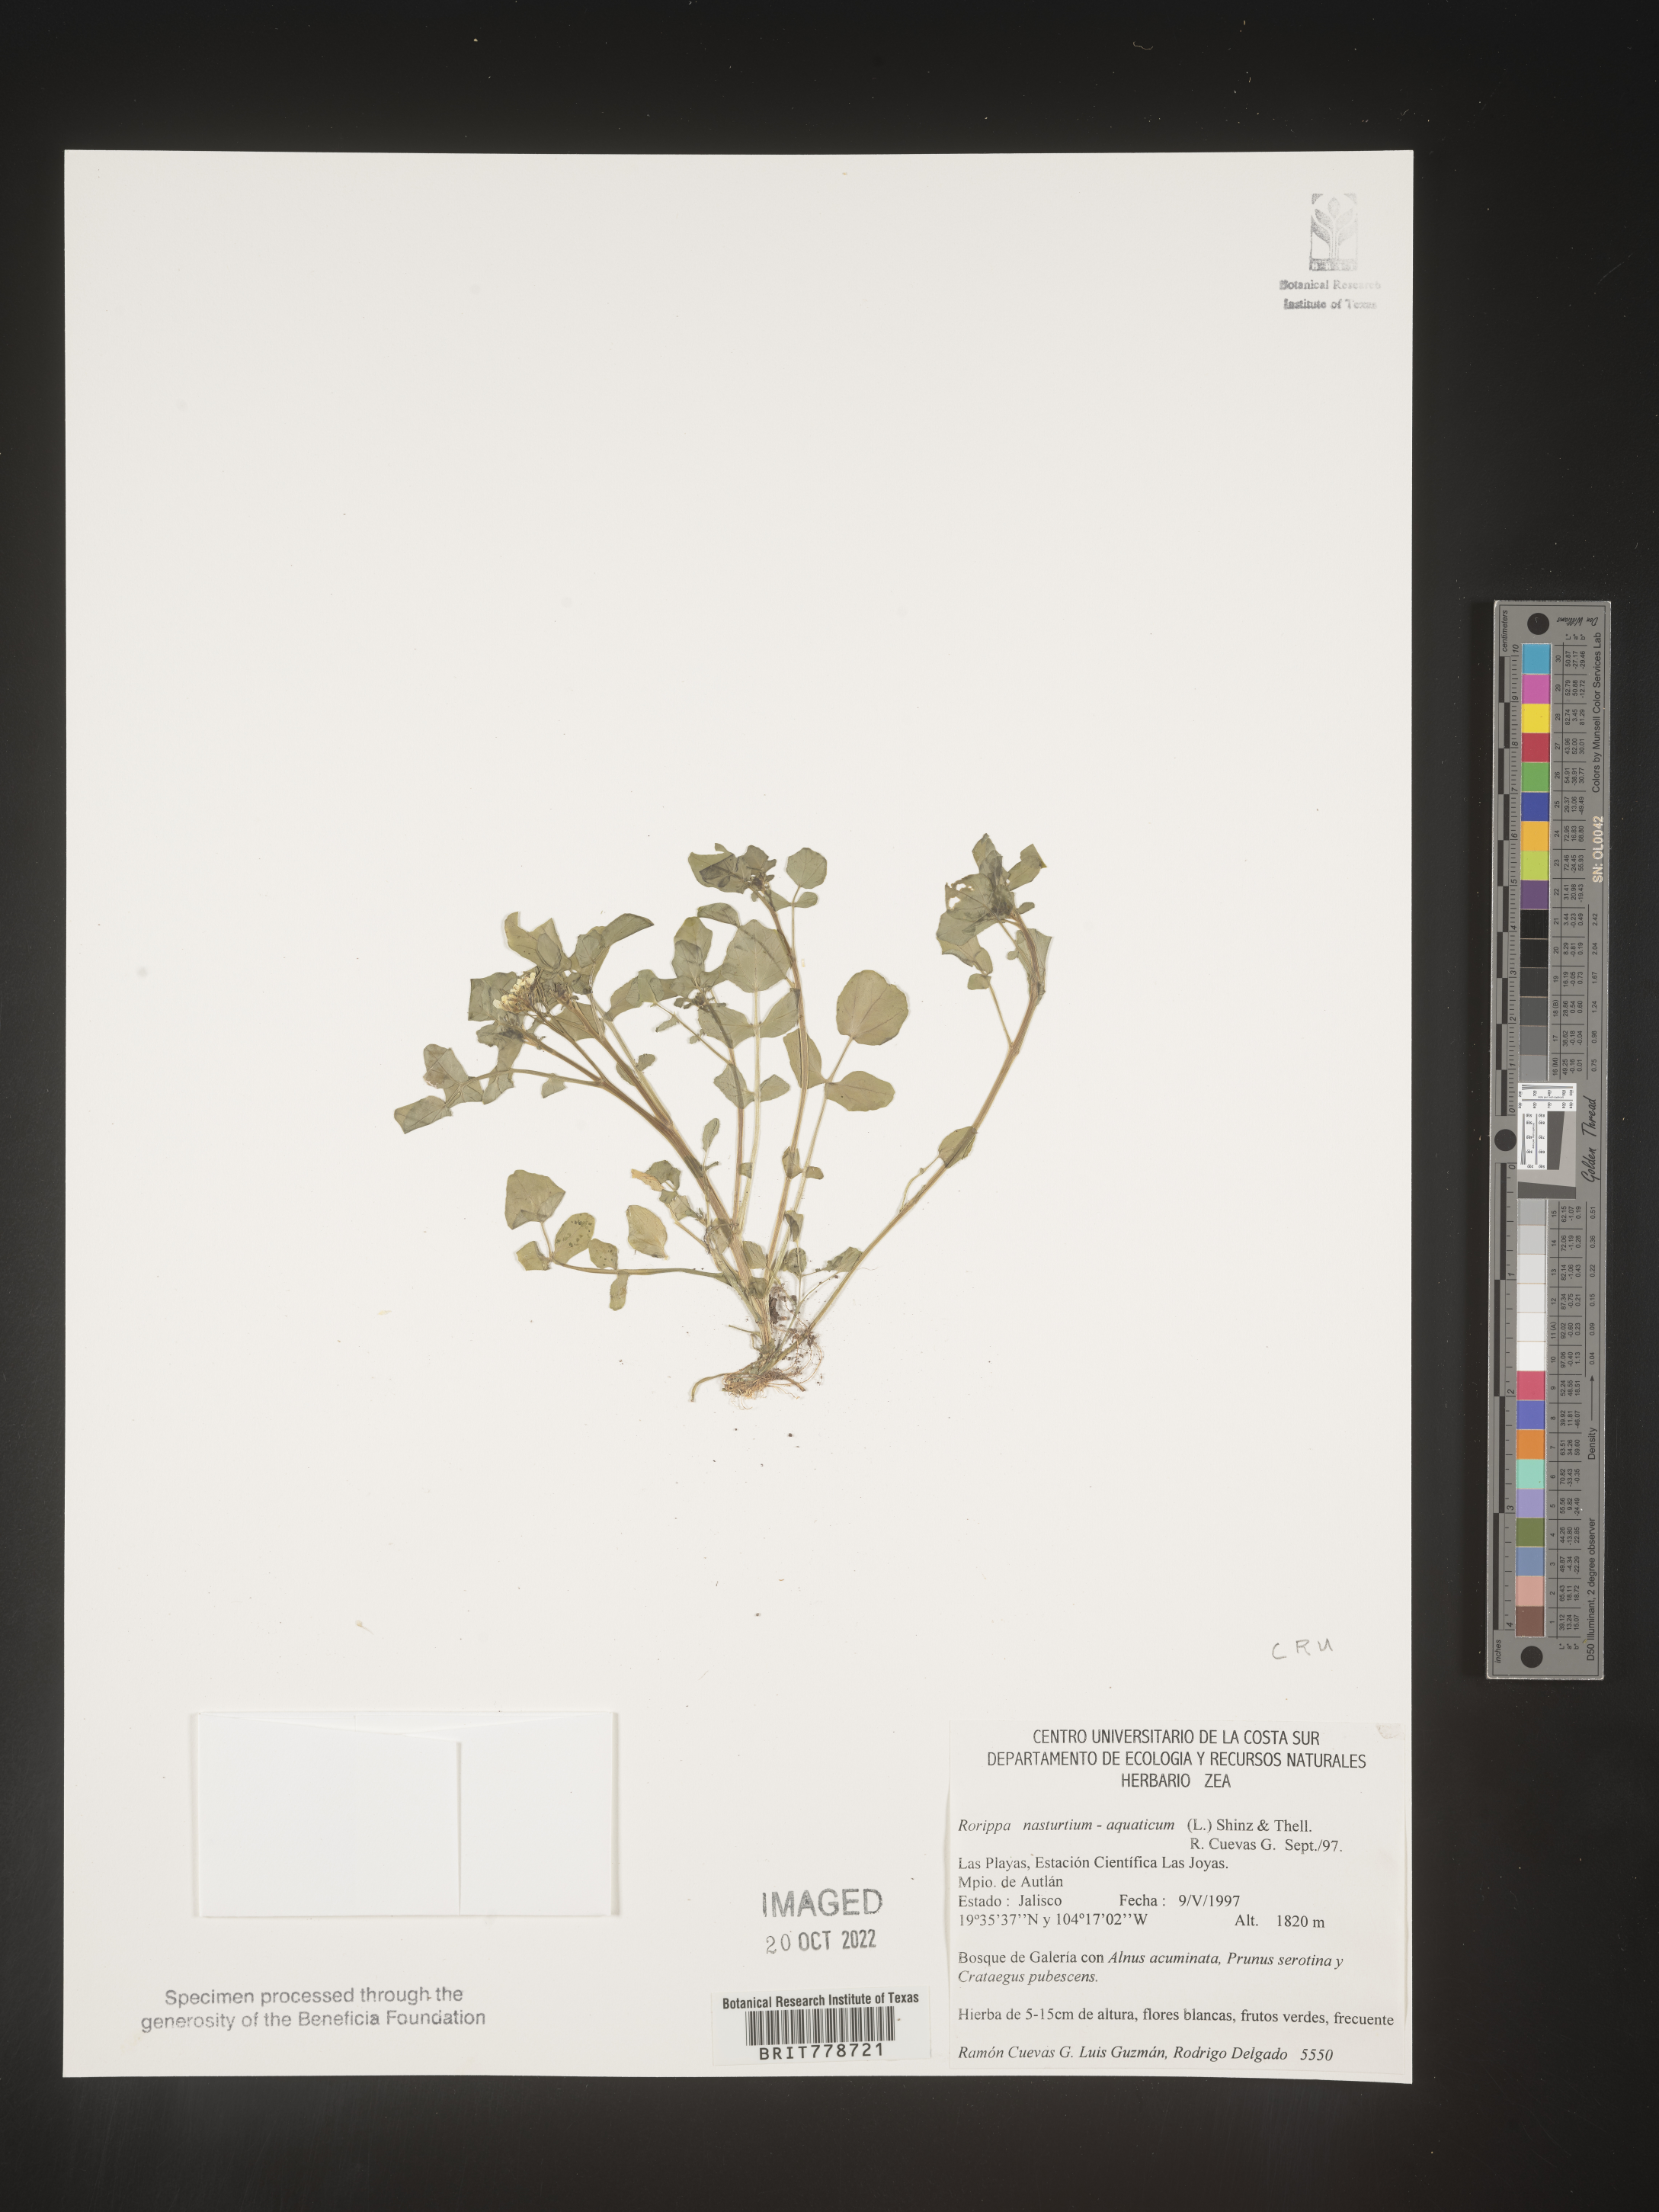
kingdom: Plantae
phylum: Tracheophyta
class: Magnoliopsida
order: Brassicales
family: Brassicaceae
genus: Rorippa
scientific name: Rorippa
